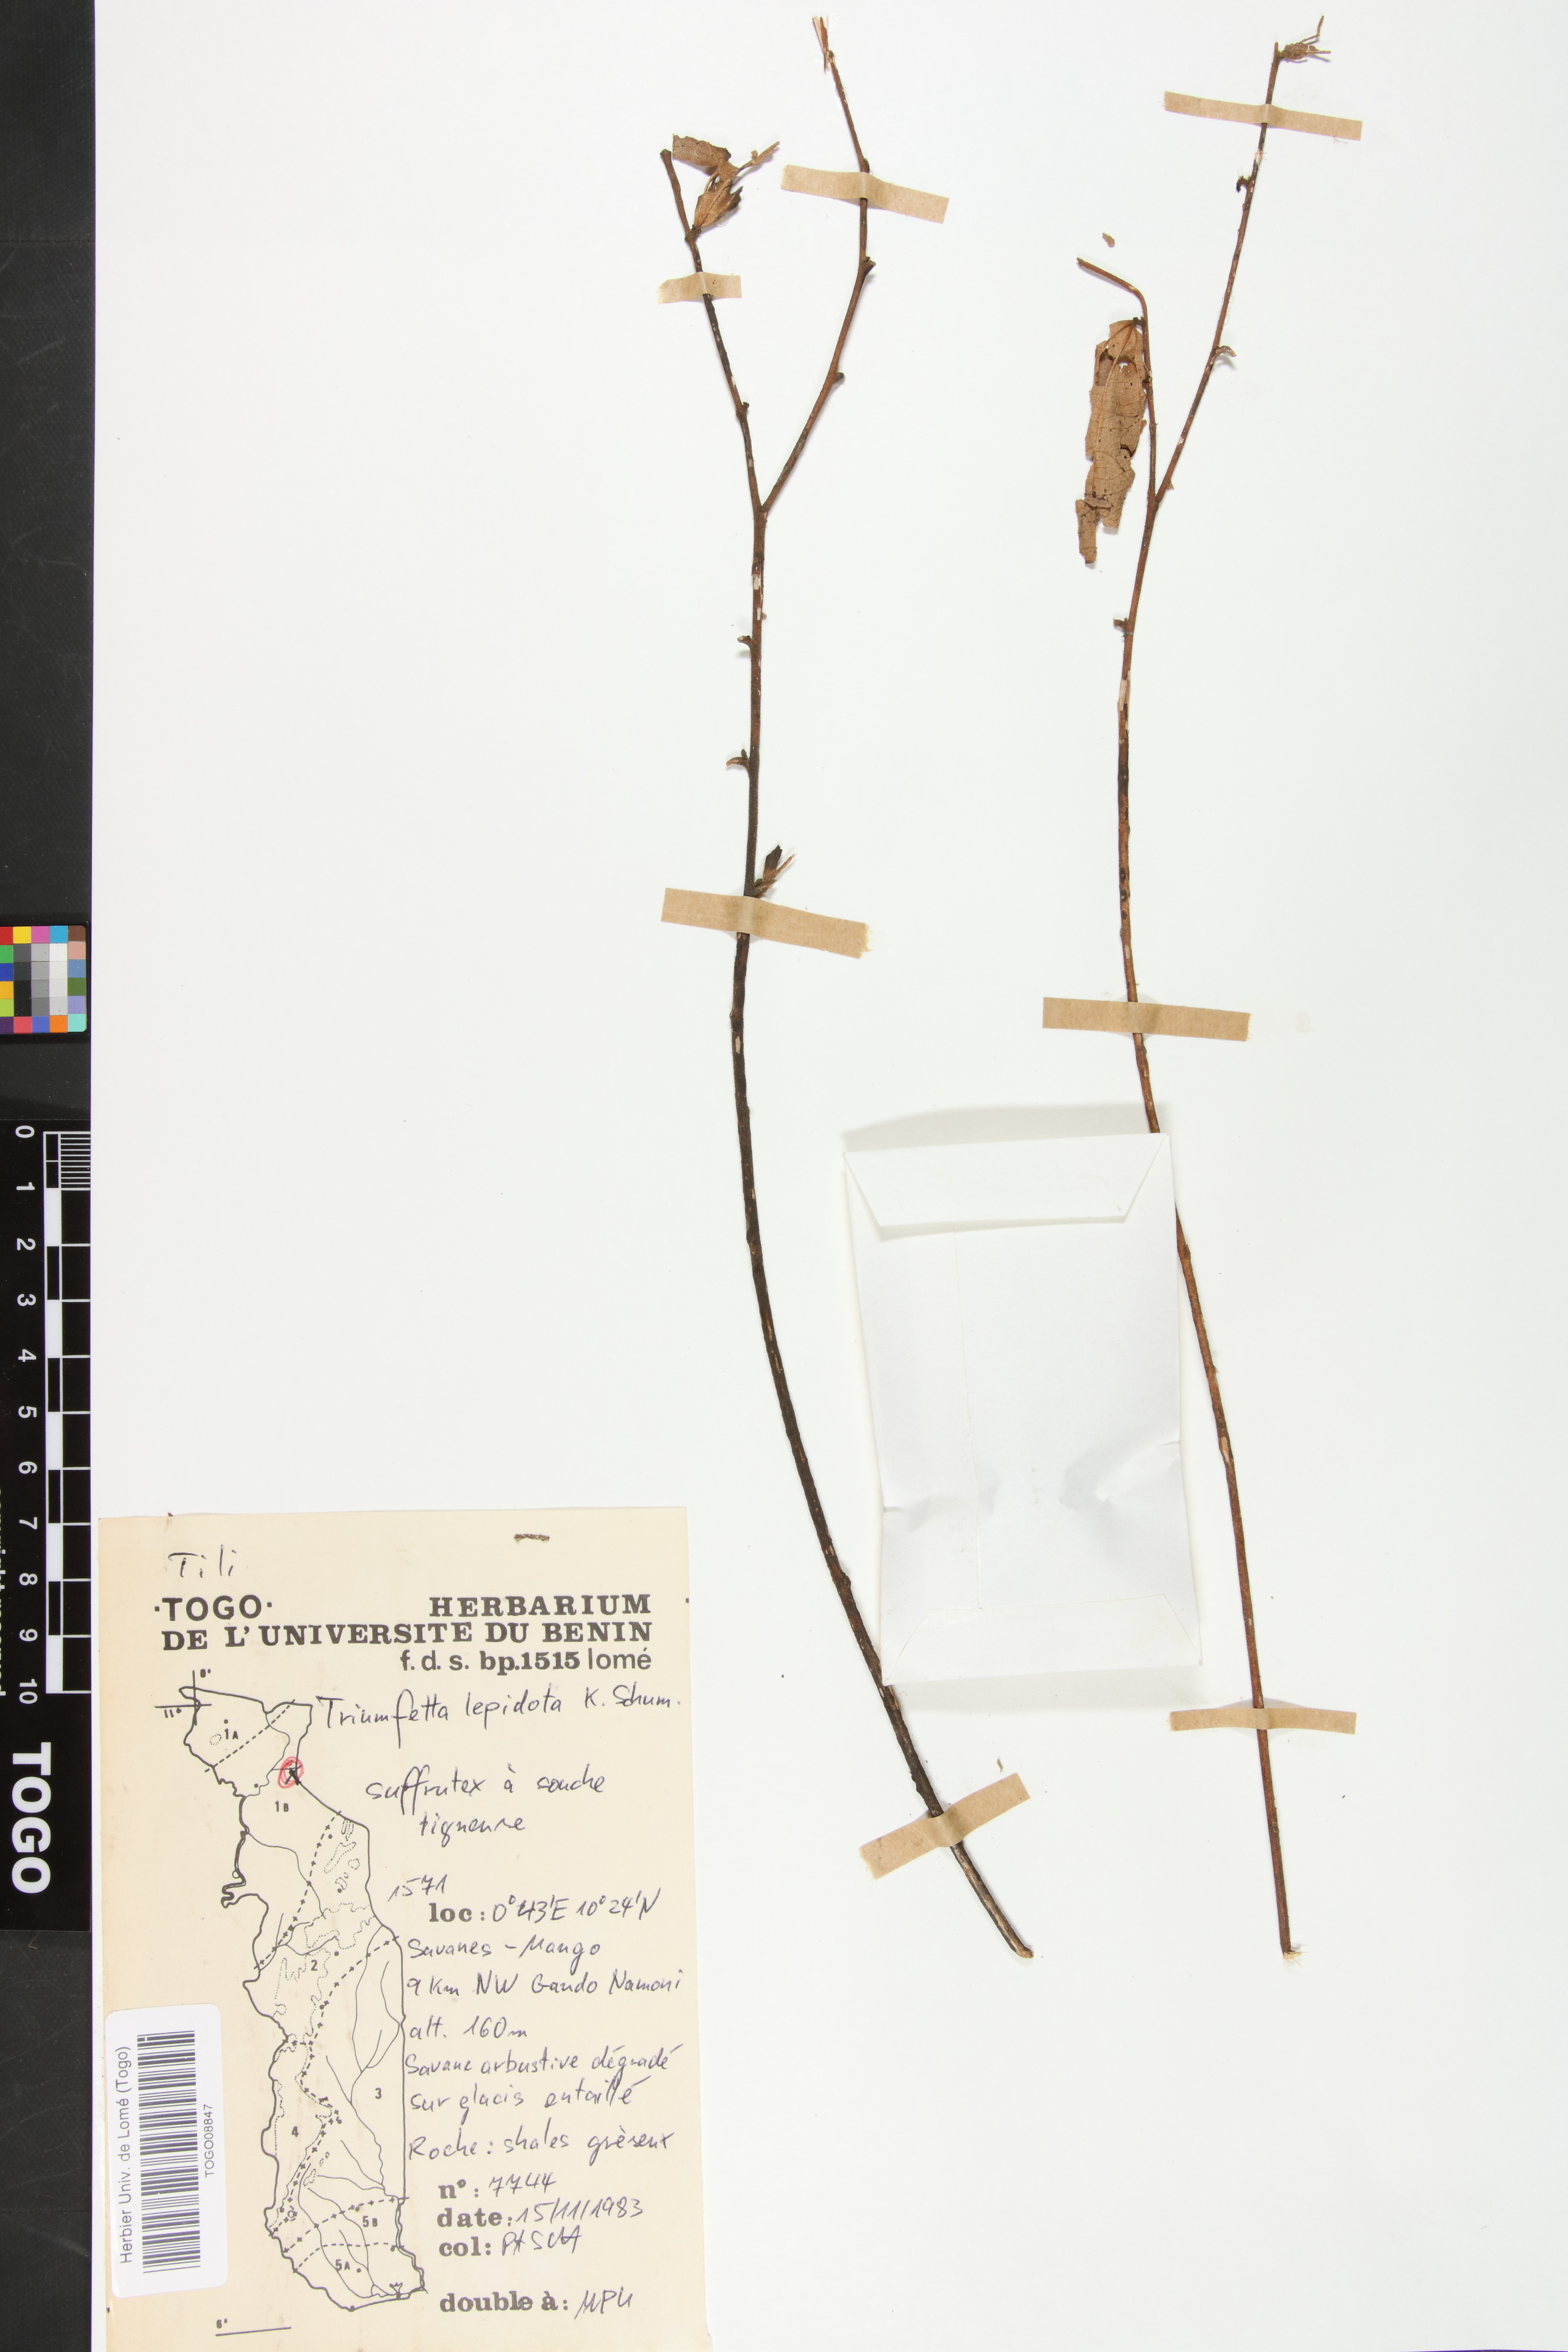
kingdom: Plantae
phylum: Tracheophyta
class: Magnoliopsida
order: Malvales
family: Malvaceae
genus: Triumfetta
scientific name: Triumfetta lepidota
